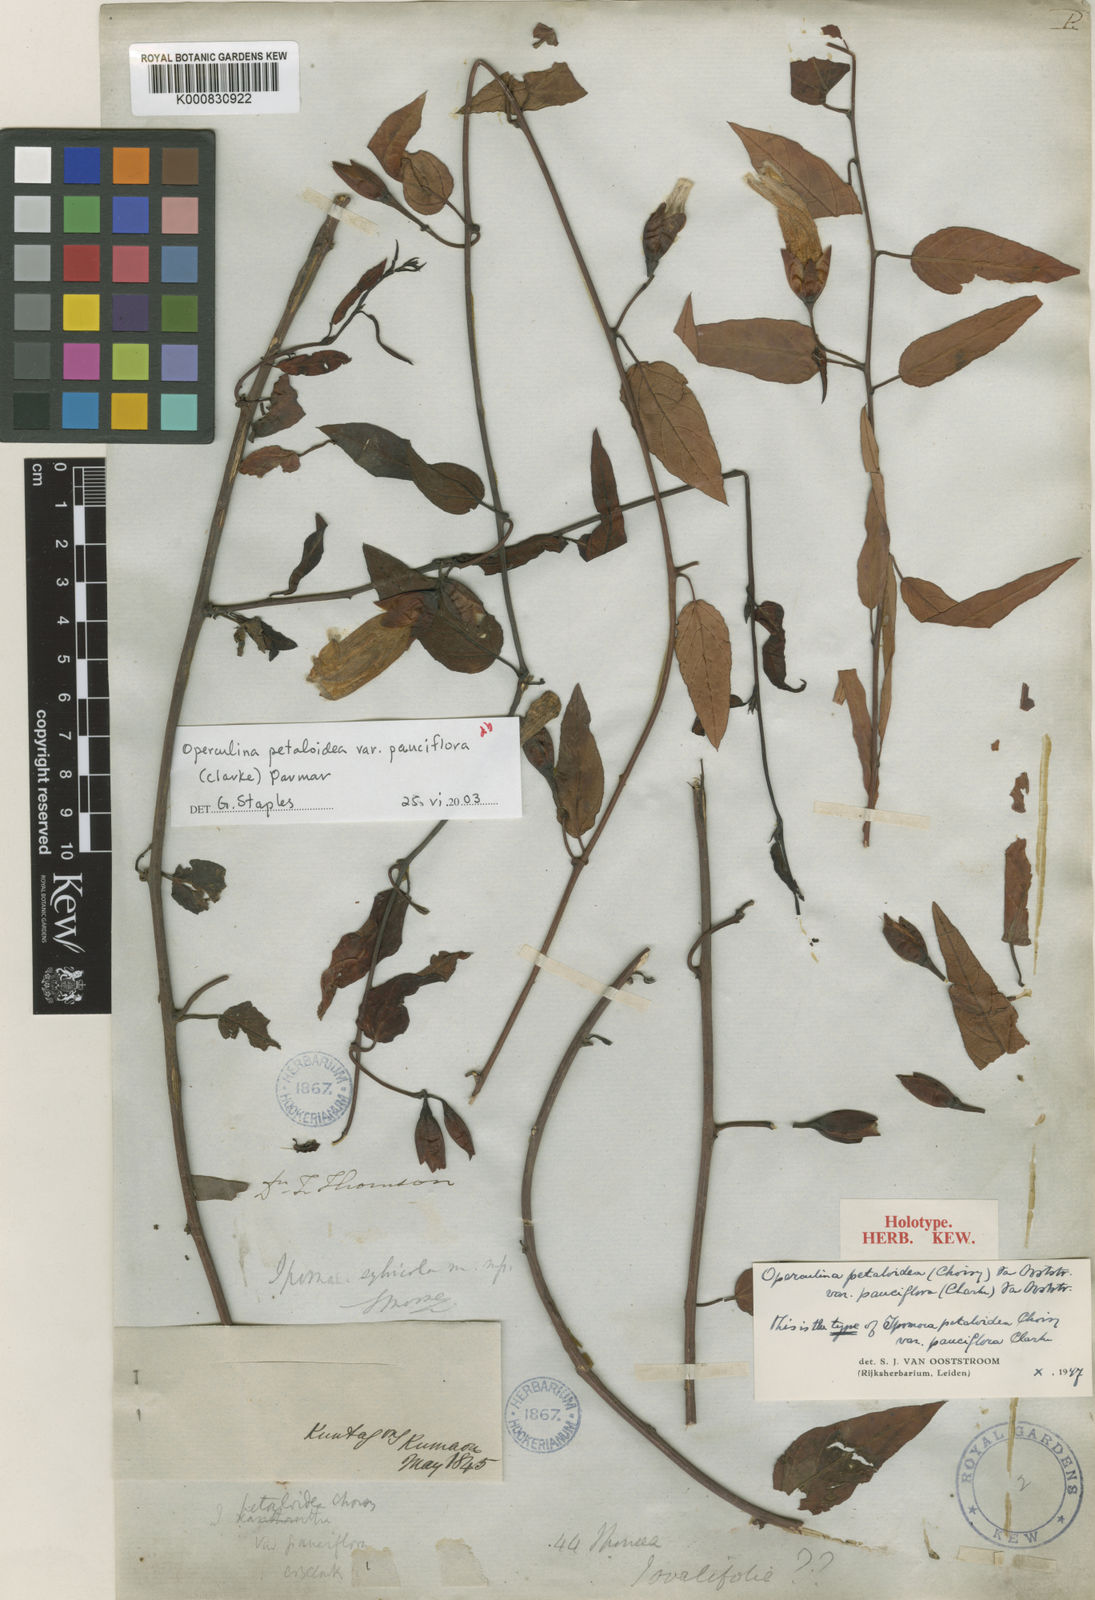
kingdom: Plantae
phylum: Tracheophyta
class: Magnoliopsida
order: Solanales
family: Convolvulaceae
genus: Operculina
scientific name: Operculina petaloidea
